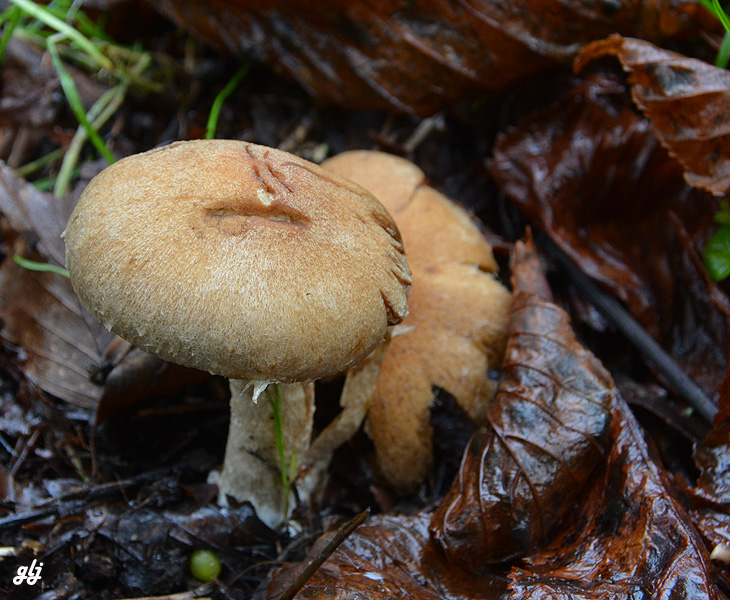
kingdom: Fungi
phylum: Basidiomycota
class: Agaricomycetes
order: Agaricales
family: Psathyrellaceae
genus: Lacrymaria
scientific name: Lacrymaria lacrymabunda
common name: grædende mørkhat
